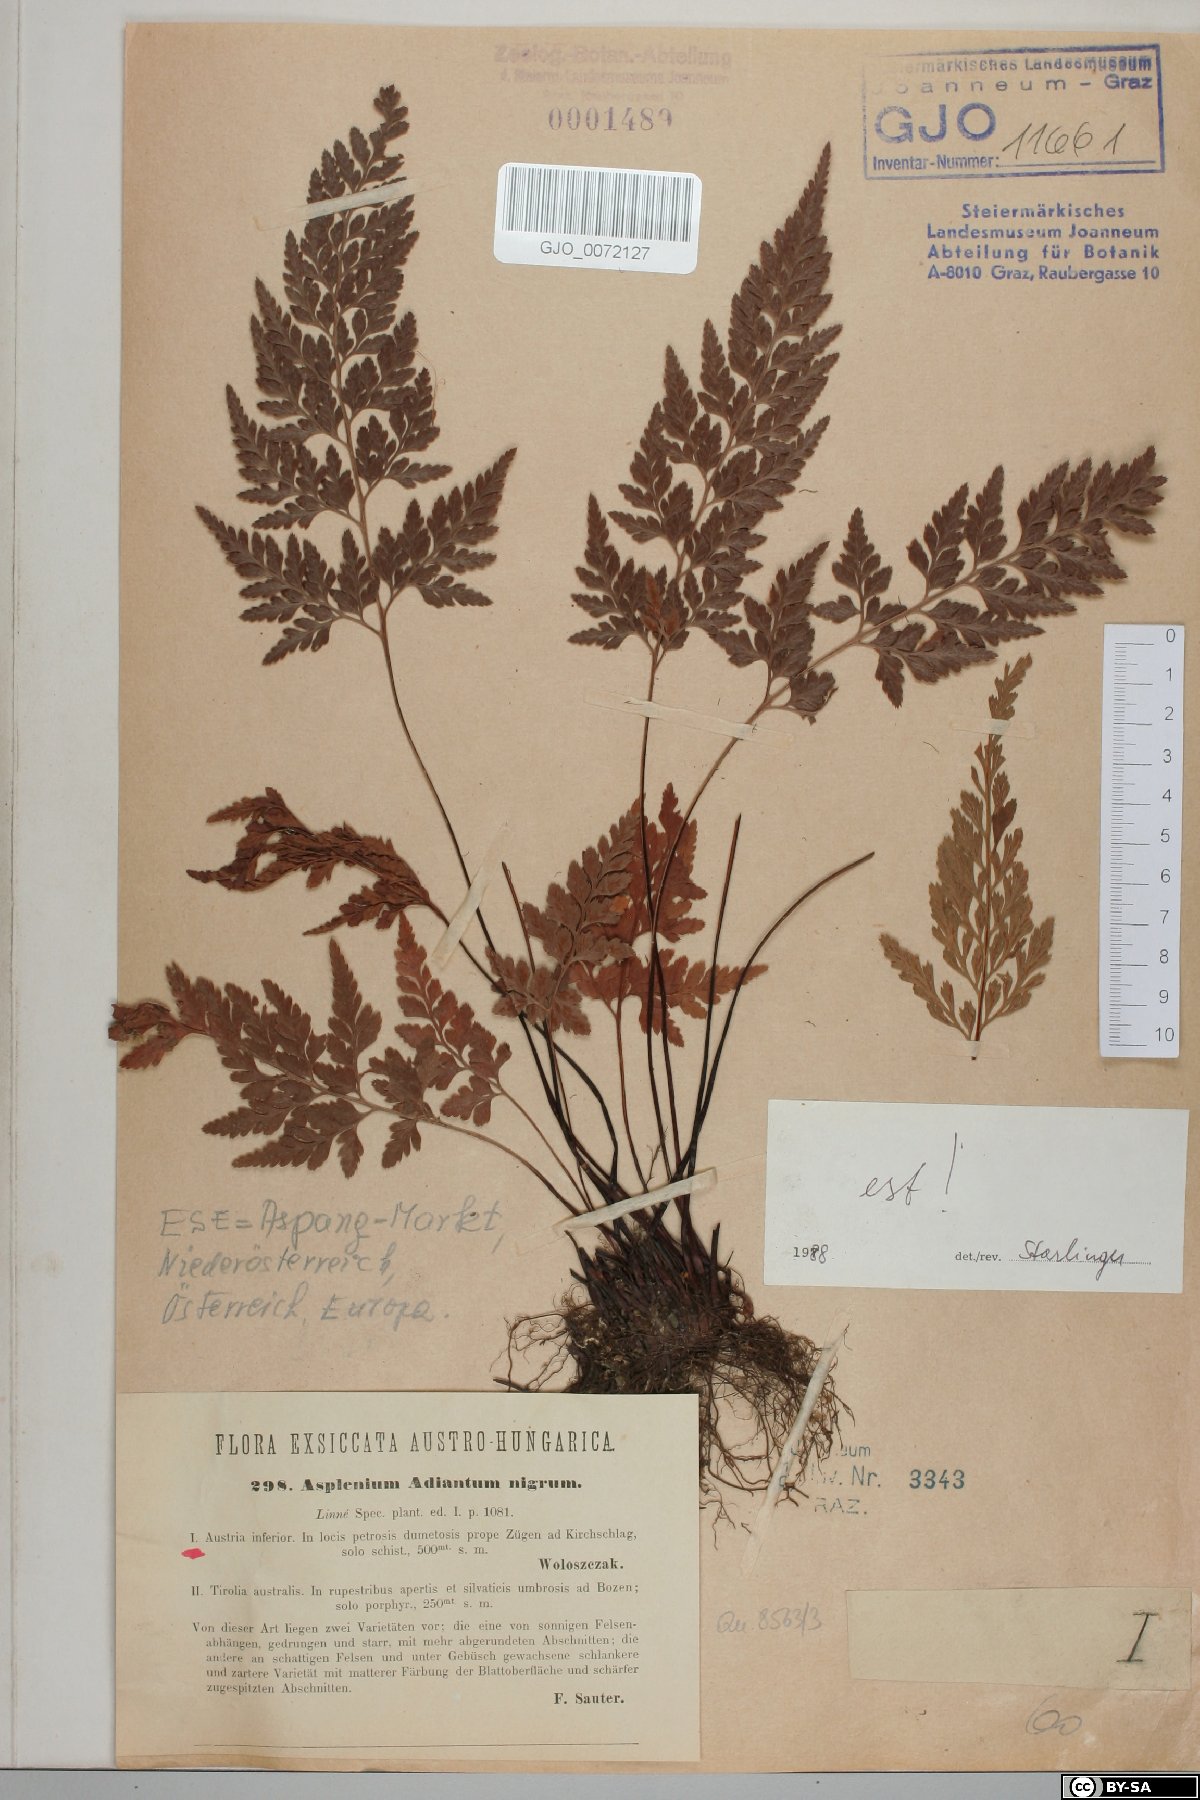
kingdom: Plantae
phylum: Tracheophyta
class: Polypodiopsida
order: Polypodiales
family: Aspleniaceae
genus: Asplenium
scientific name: Asplenium adiantum-nigrum
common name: Black spleenwort
